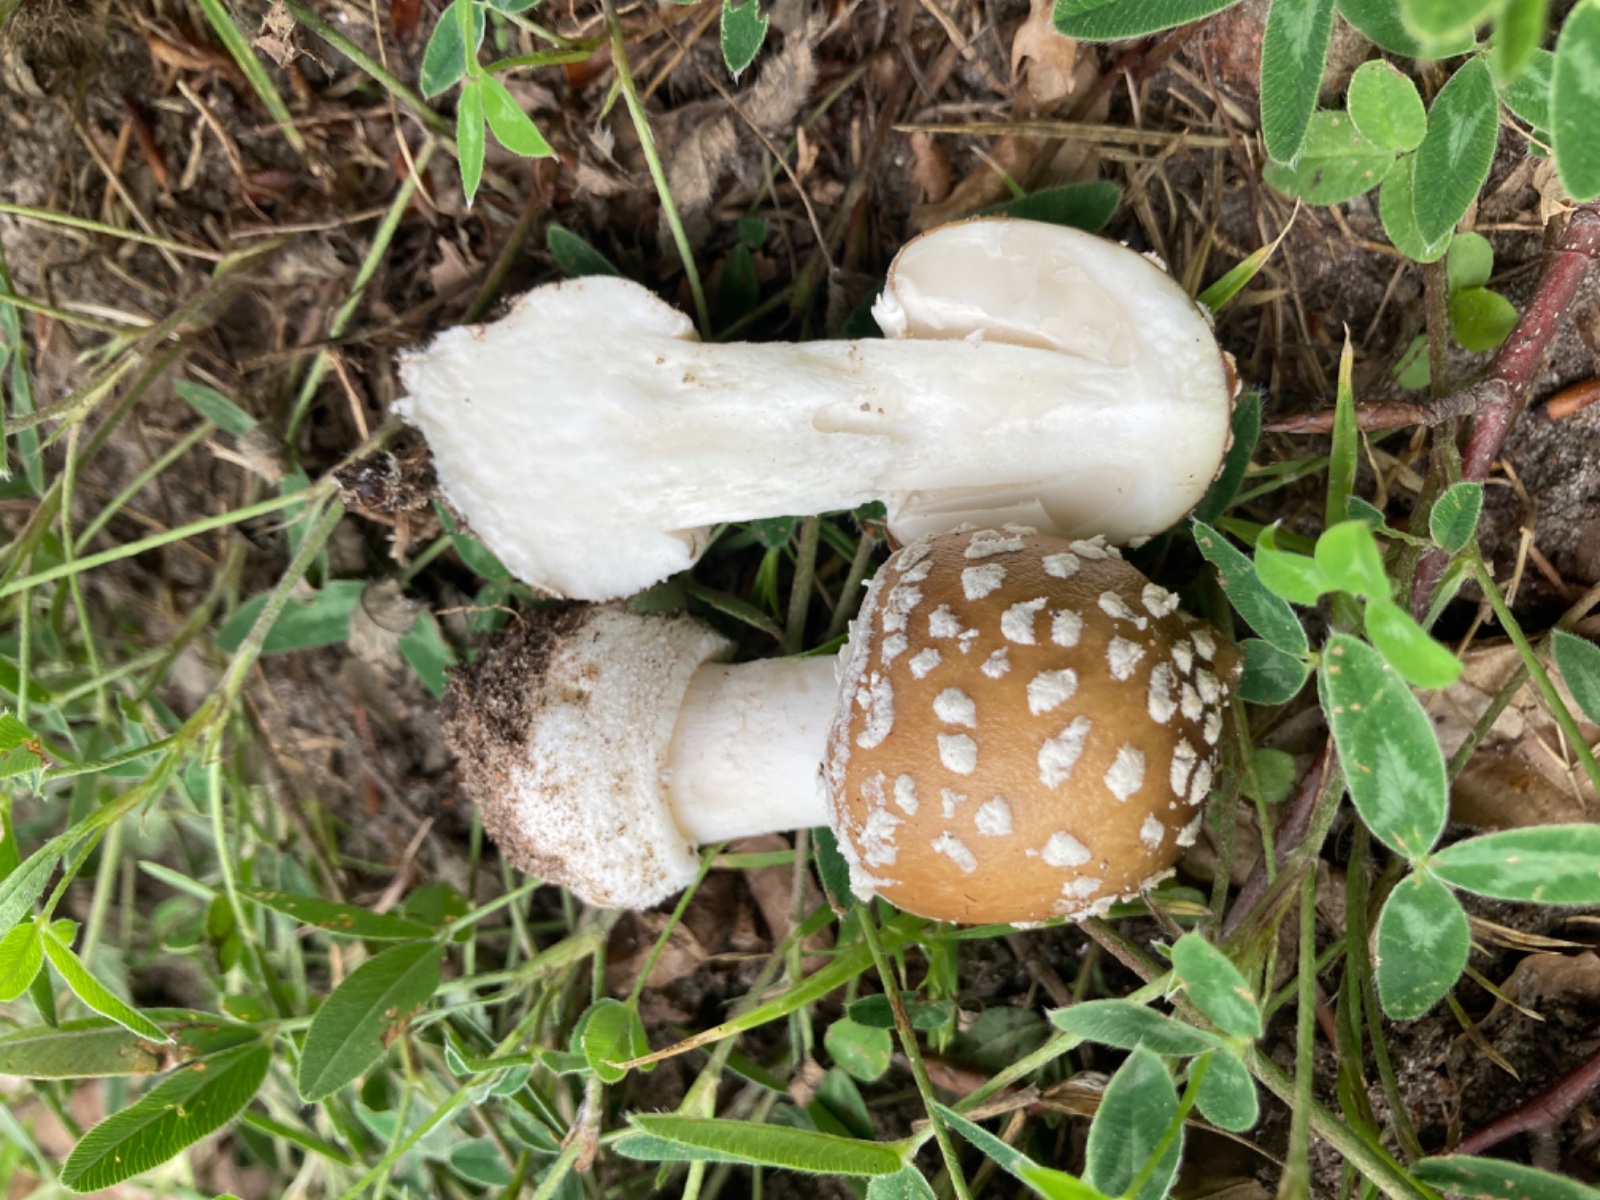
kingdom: Fungi
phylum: Basidiomycota
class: Agaricomycetes
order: Agaricales
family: Amanitaceae
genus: Amanita
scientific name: Amanita pantherina
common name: panter-fluesvamp
